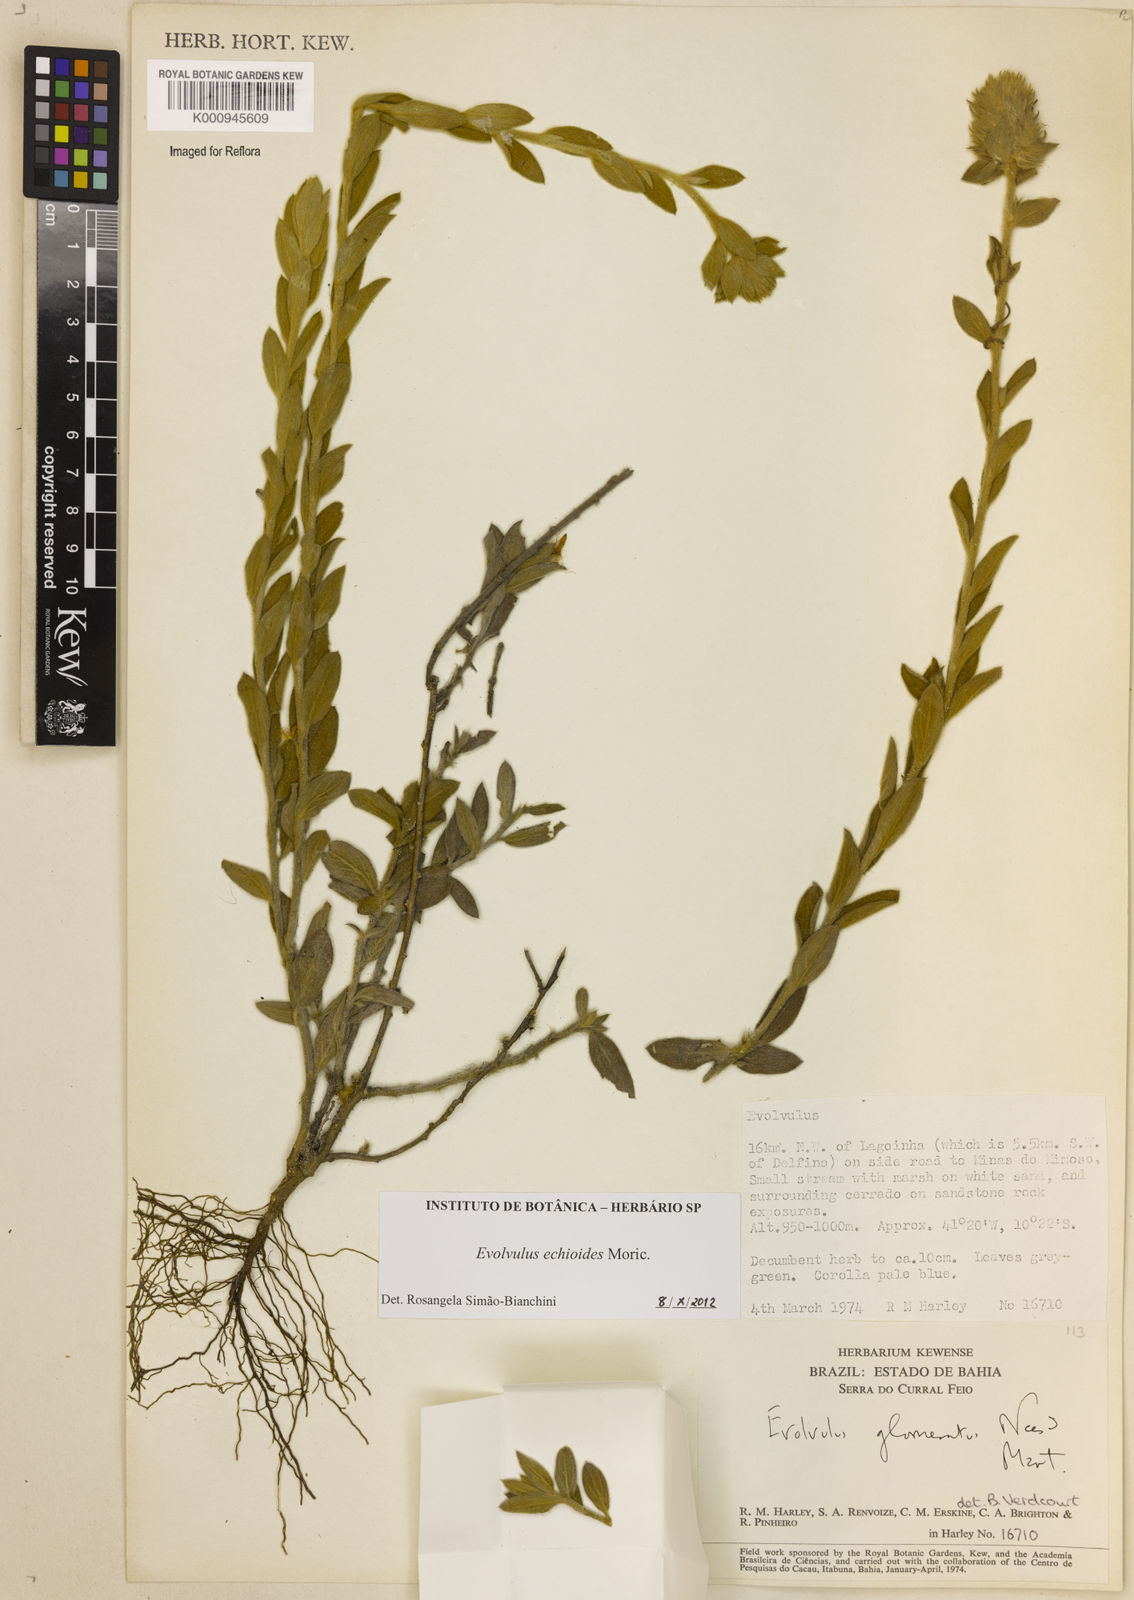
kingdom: Plantae
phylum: Tracheophyta
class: Magnoliopsida
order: Solanales
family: Convolvulaceae
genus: Evolvulus
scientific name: Evolvulus echioides
